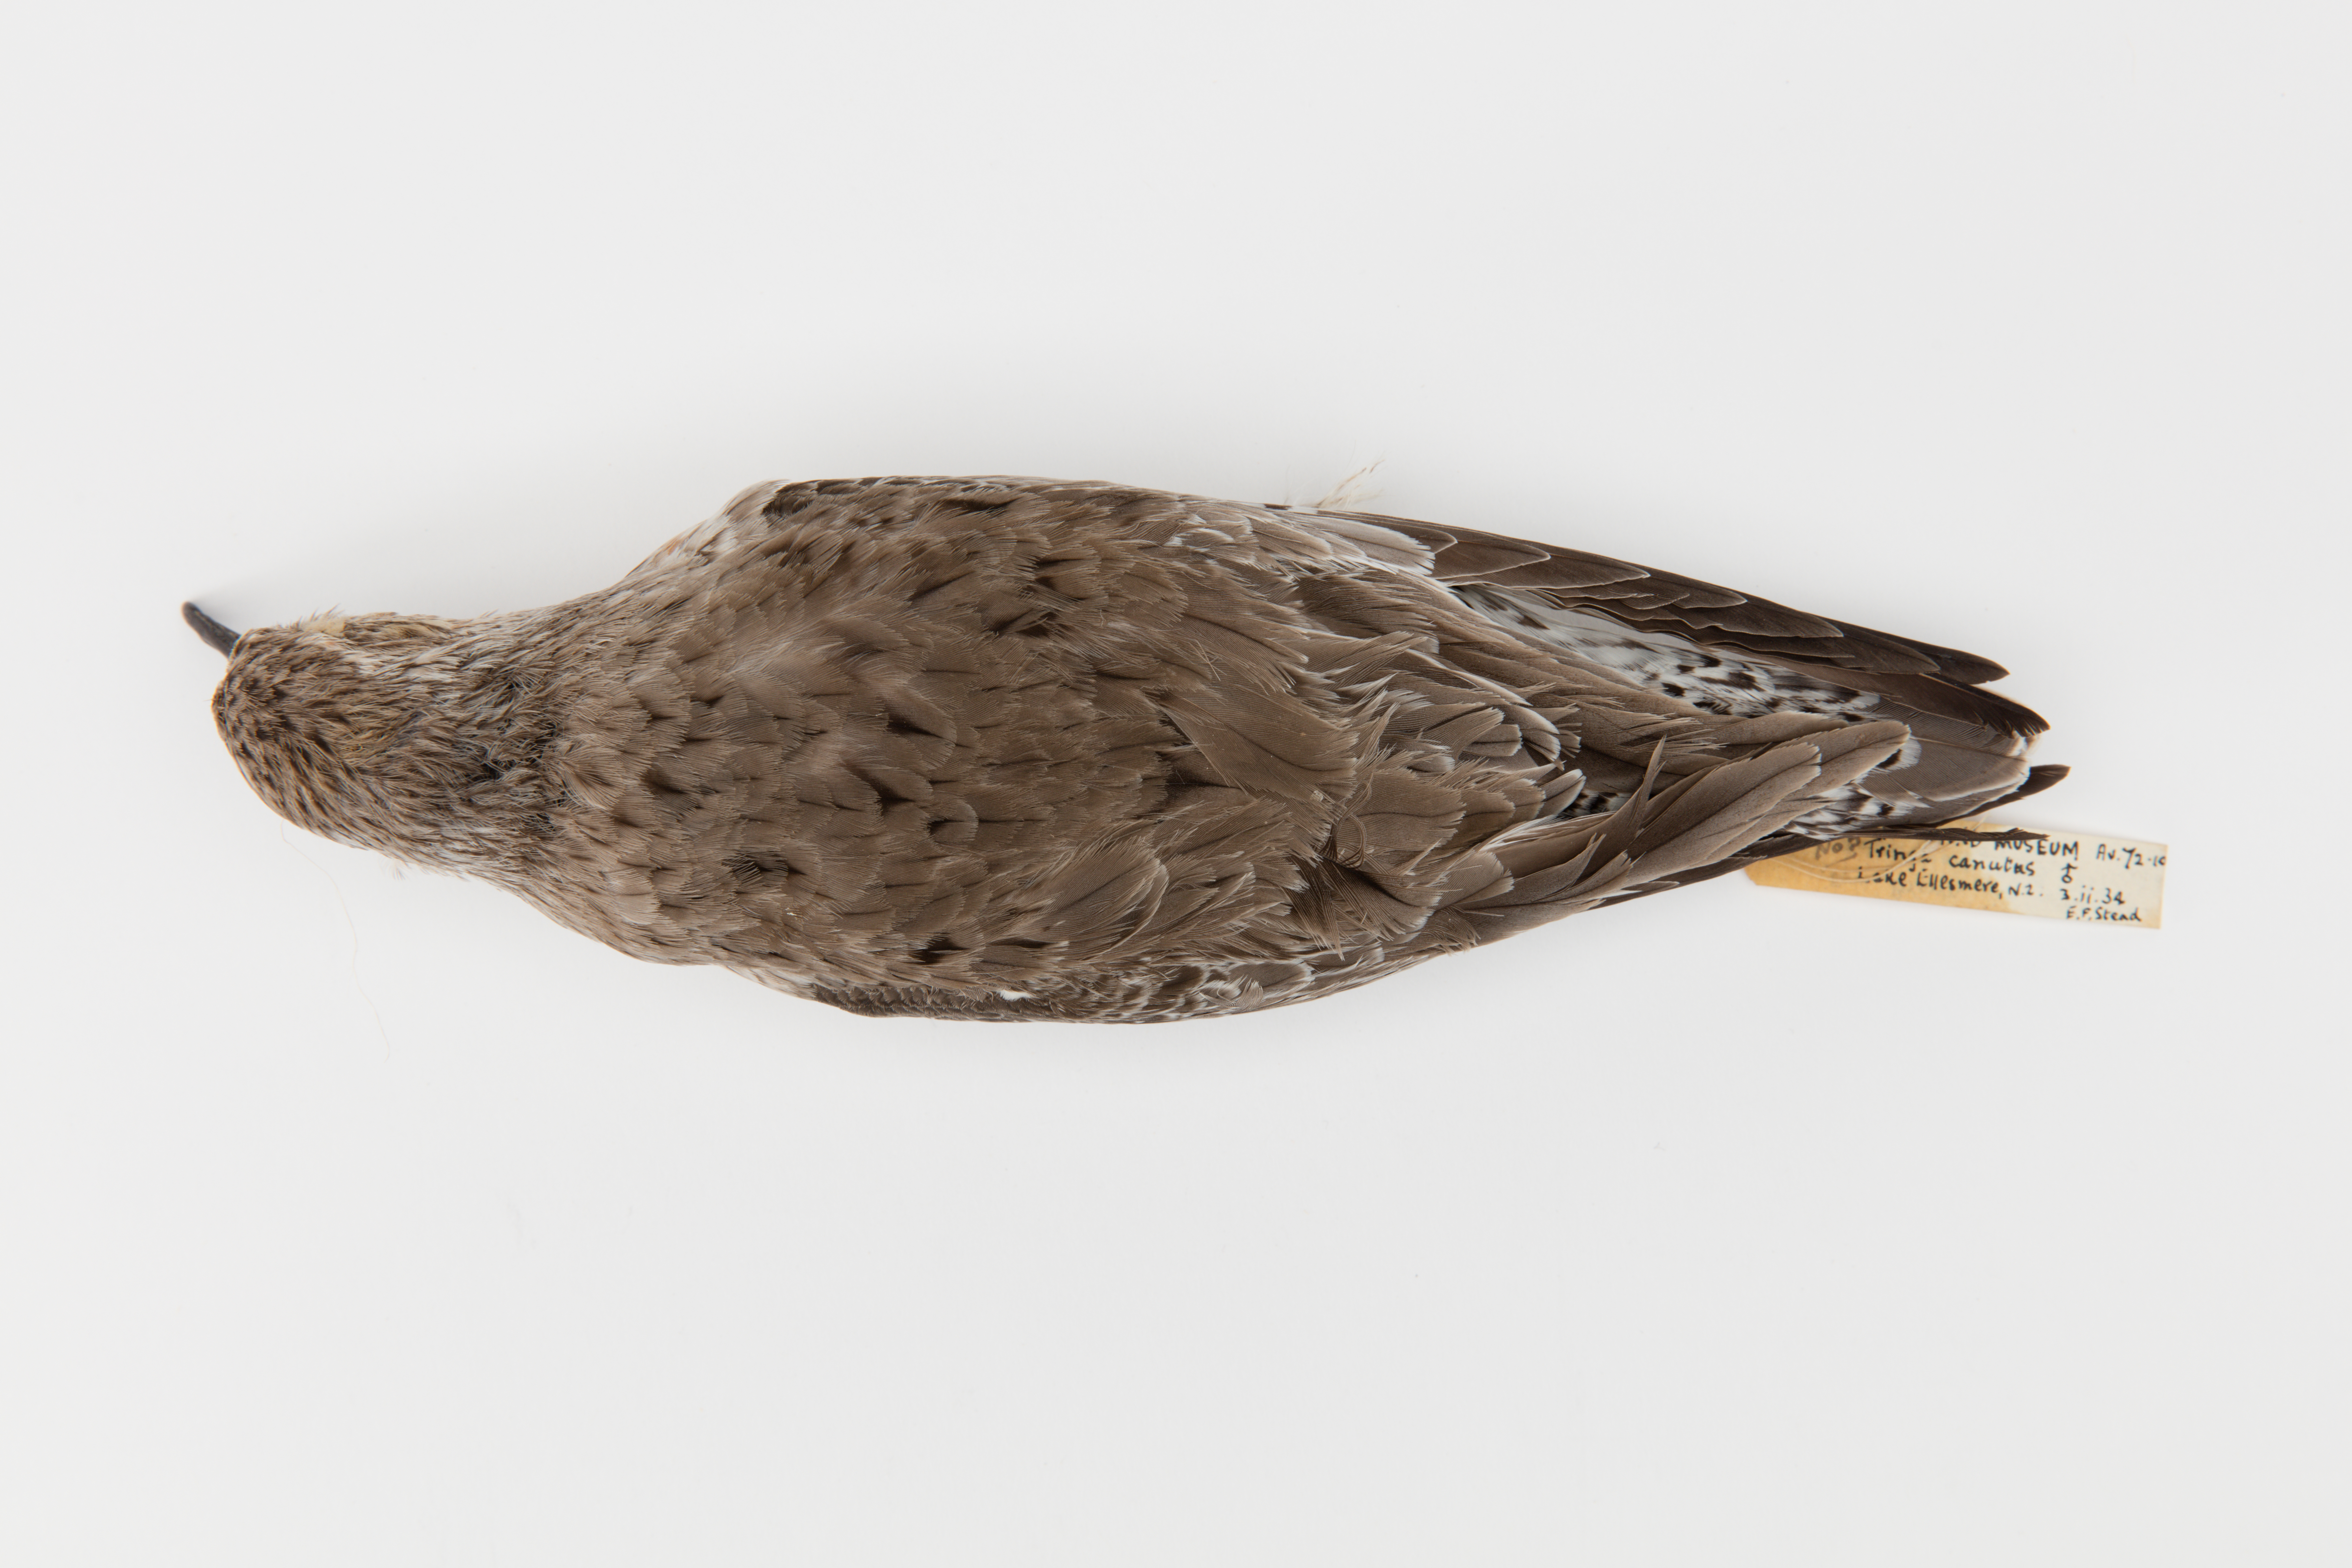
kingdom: Animalia
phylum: Chordata
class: Aves
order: Charadriiformes
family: Scolopacidae
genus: Calidris
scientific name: Calidris canutus
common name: Red knot
